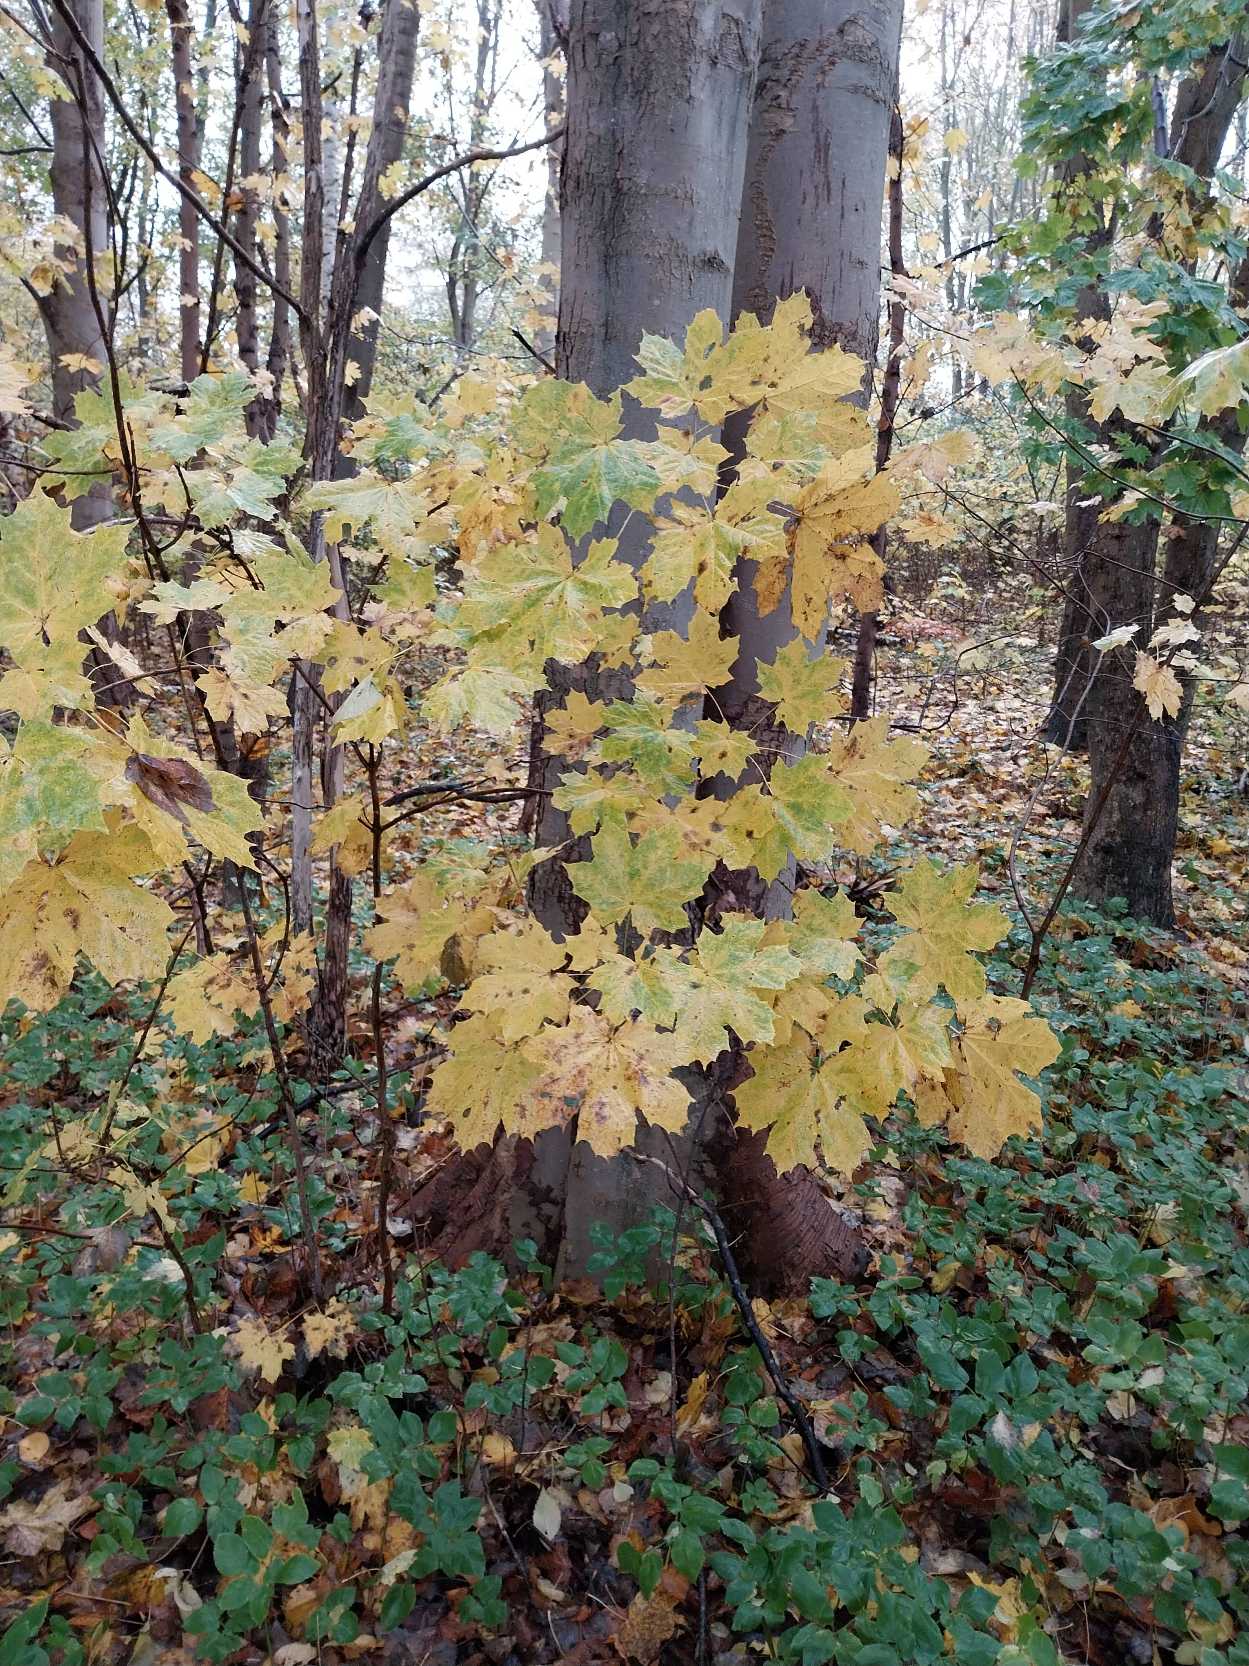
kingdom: Plantae
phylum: Tracheophyta
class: Magnoliopsida
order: Sapindales
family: Sapindaceae
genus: Acer
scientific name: Acer platanoides
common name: Spids-løn
